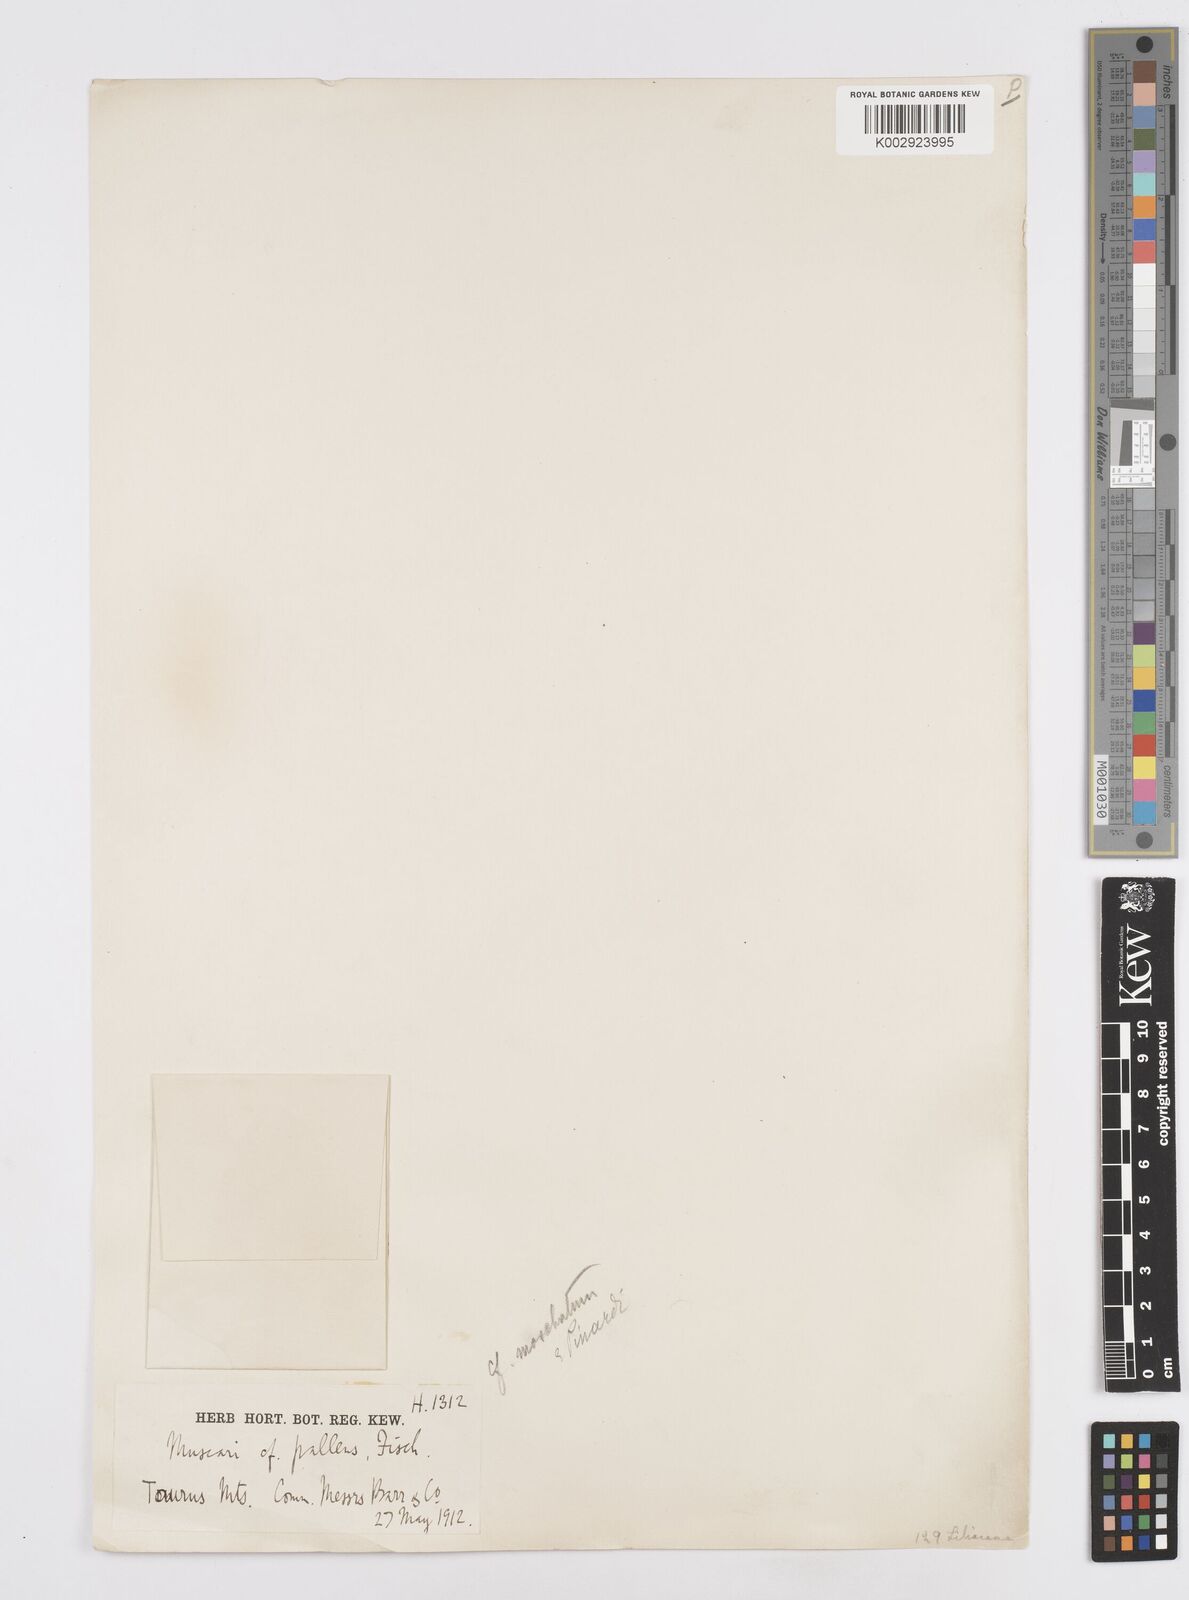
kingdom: Plantae
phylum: Tracheophyta
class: Liliopsida
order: Asparagales
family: Asparagaceae
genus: Muscari
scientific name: Muscari
